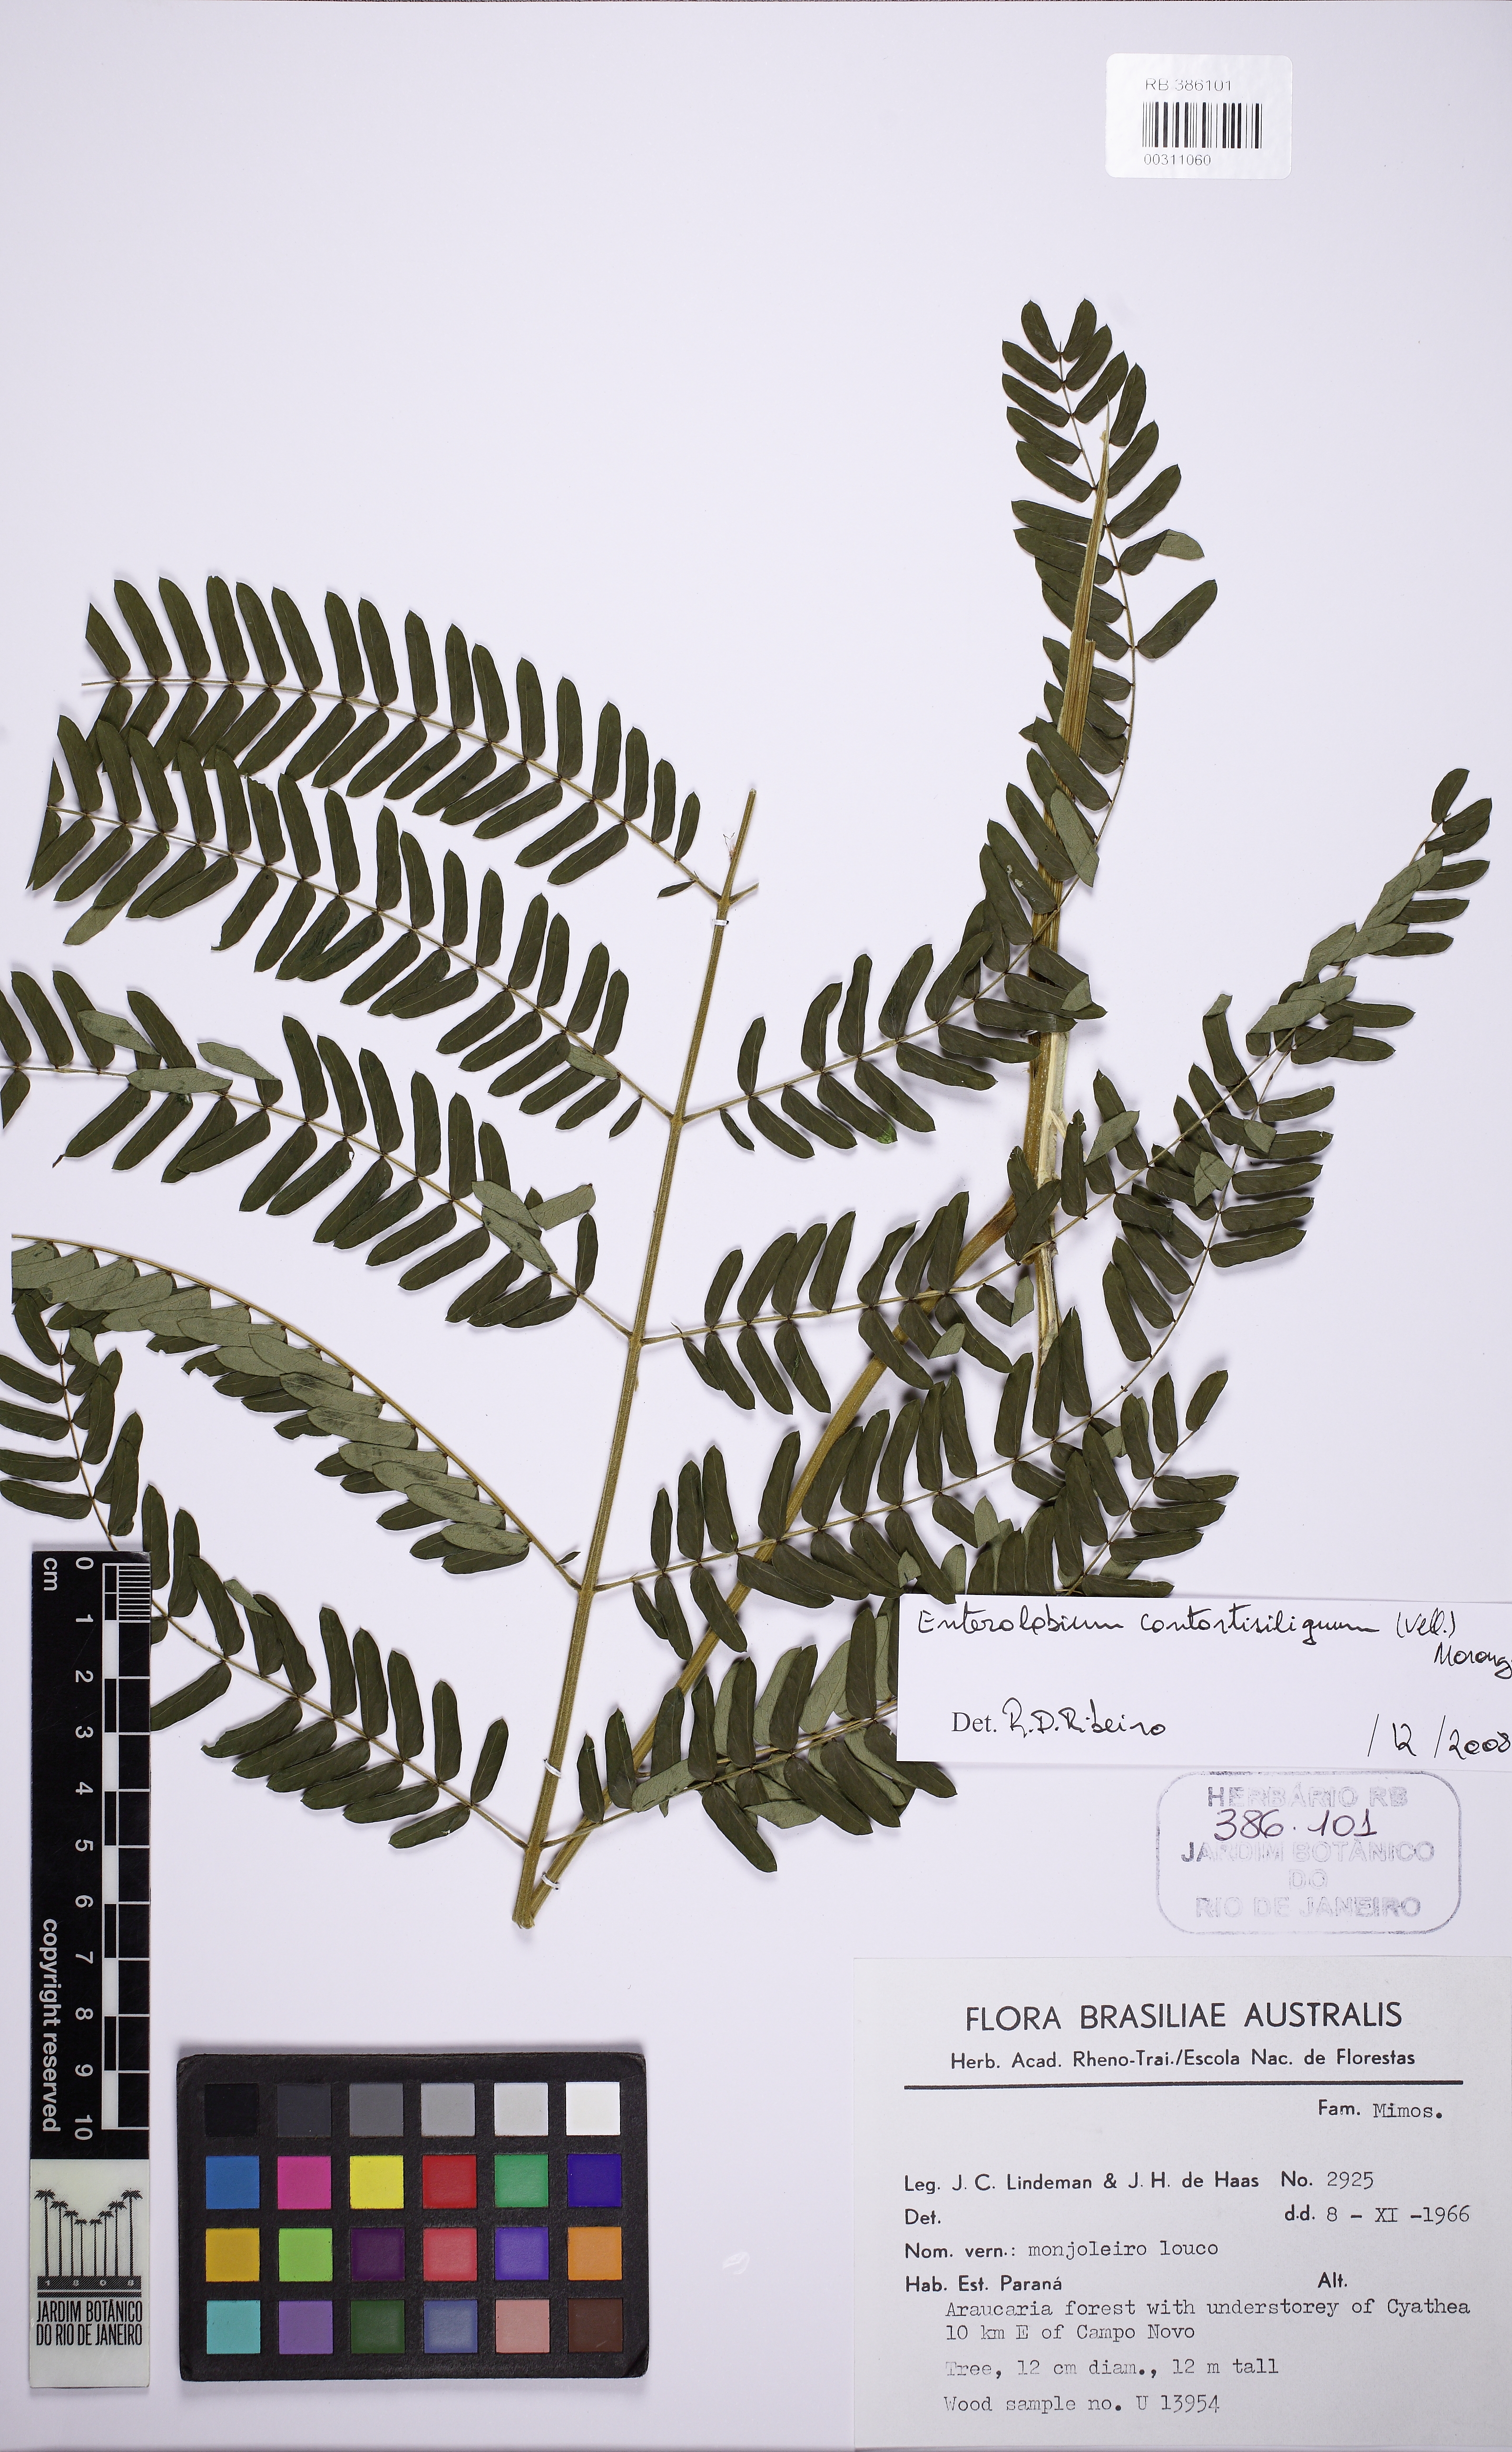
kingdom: Plantae
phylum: Tracheophyta
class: Magnoliopsida
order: Fabales
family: Fabaceae
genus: Enterolobium
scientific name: Enterolobium contortisiliquum
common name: Pacara earpod tree
